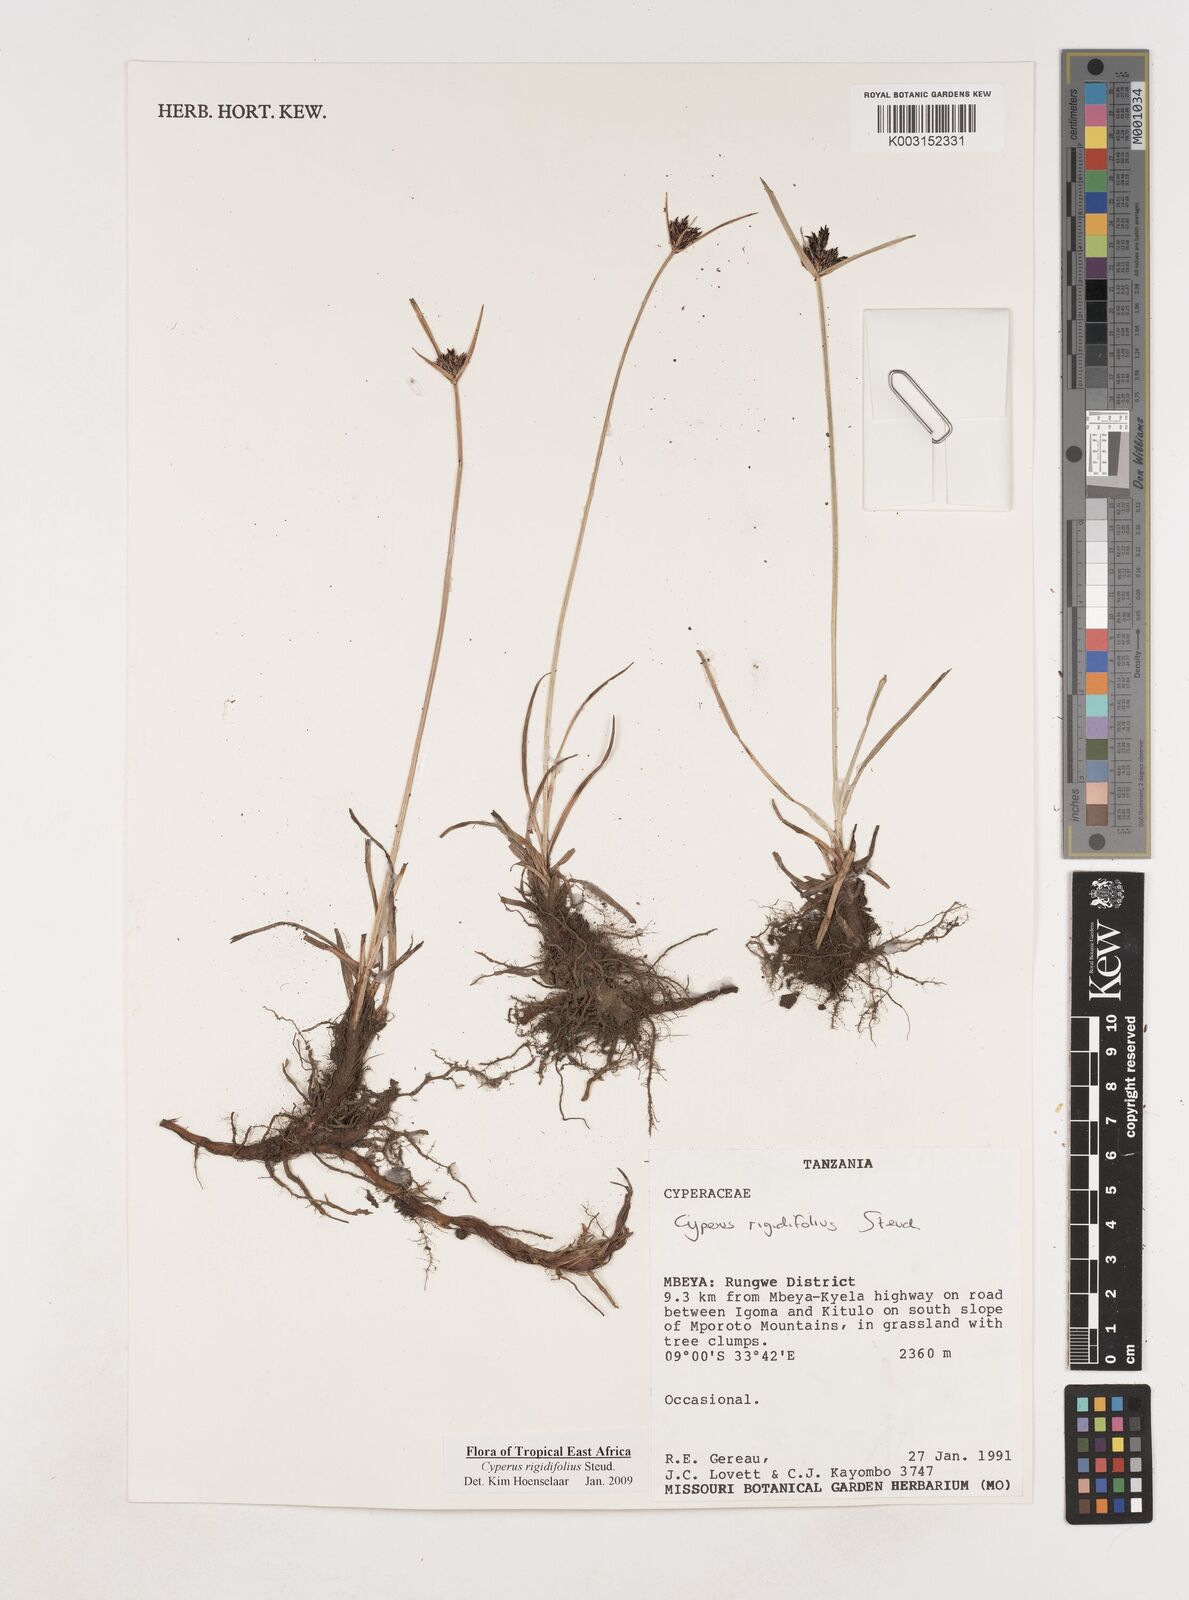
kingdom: Plantae
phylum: Tracheophyta
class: Liliopsida
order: Poales
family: Cyperaceae
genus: Cyperus
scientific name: Cyperus rigidifolius
